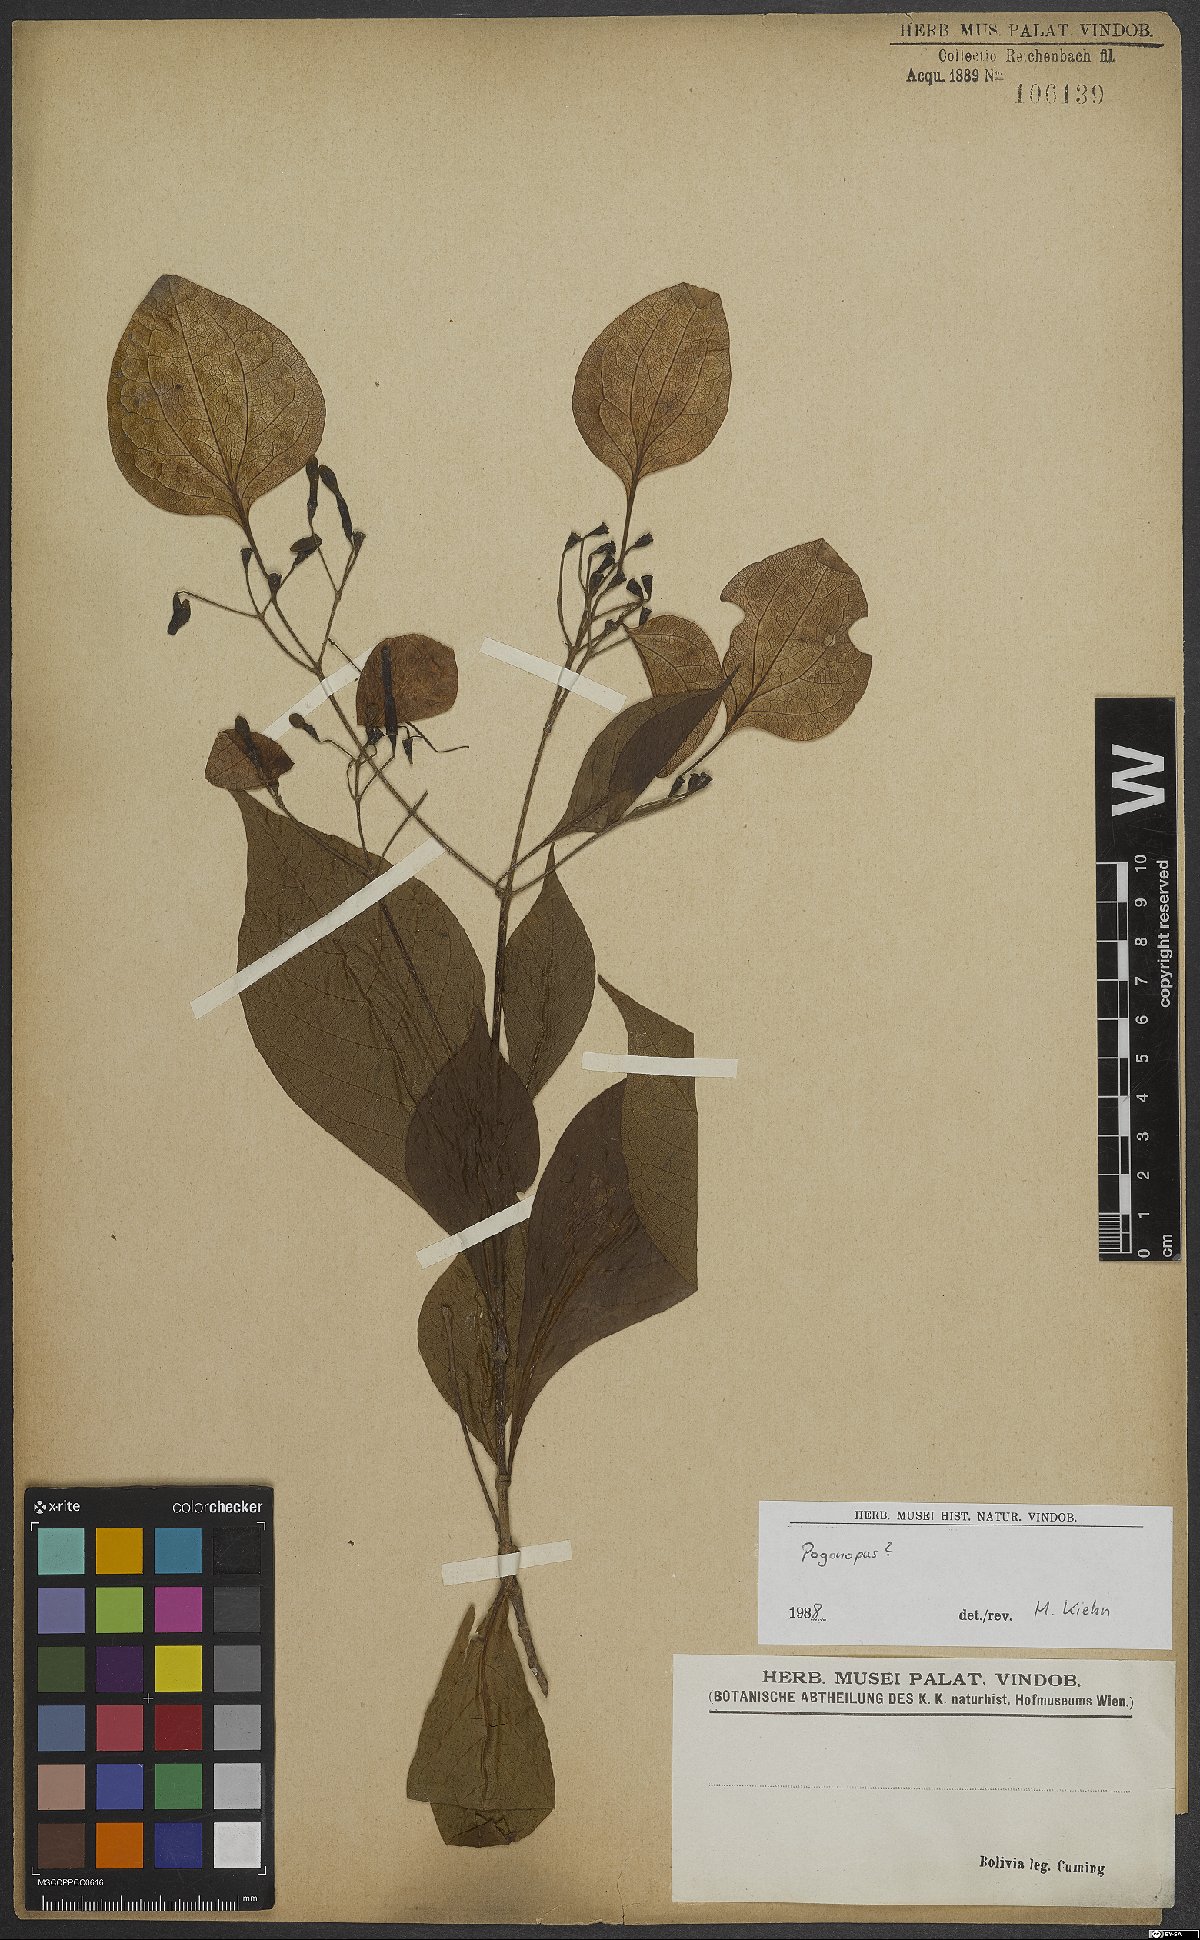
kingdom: Plantae
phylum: Tracheophyta
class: Magnoliopsida
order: Gentianales
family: Rubiaceae
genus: Pogonopus
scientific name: Pogonopus
